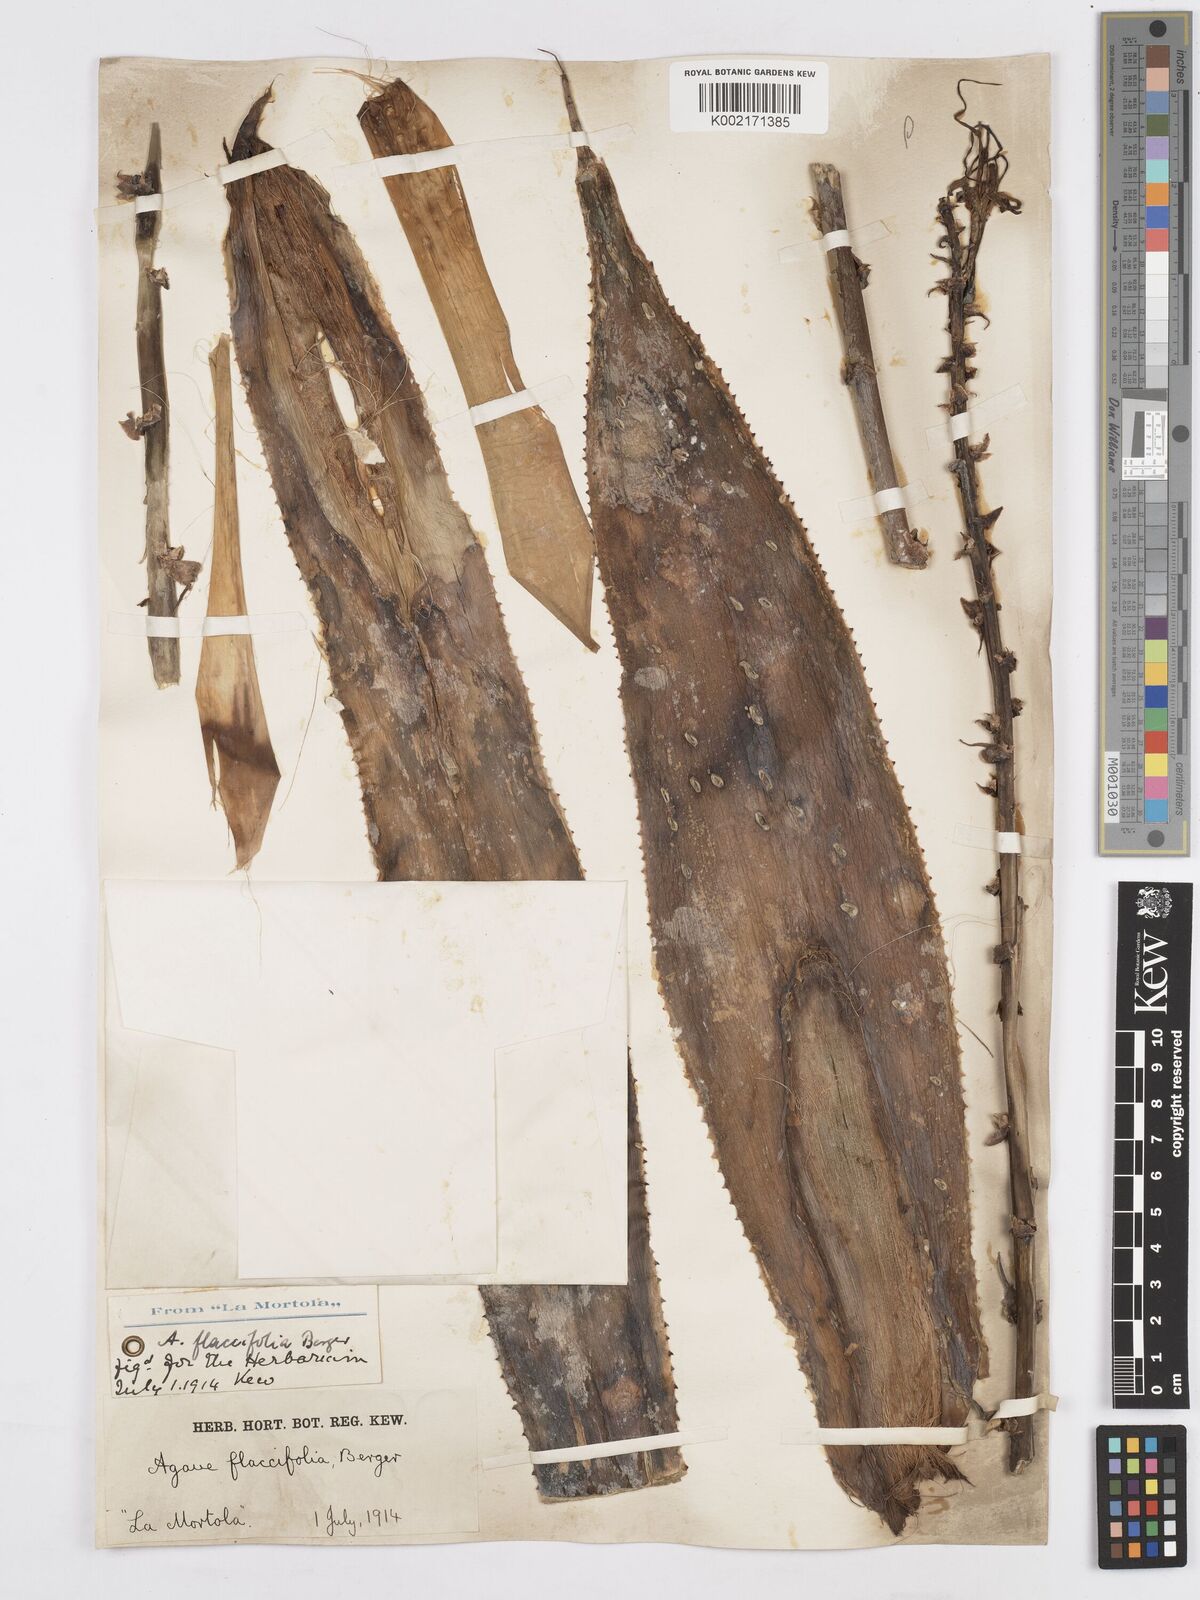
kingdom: Plantae
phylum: Tracheophyta
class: Liliopsida
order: Asparagales
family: Asparagaceae
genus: Agave
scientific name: Agave polyacantha
